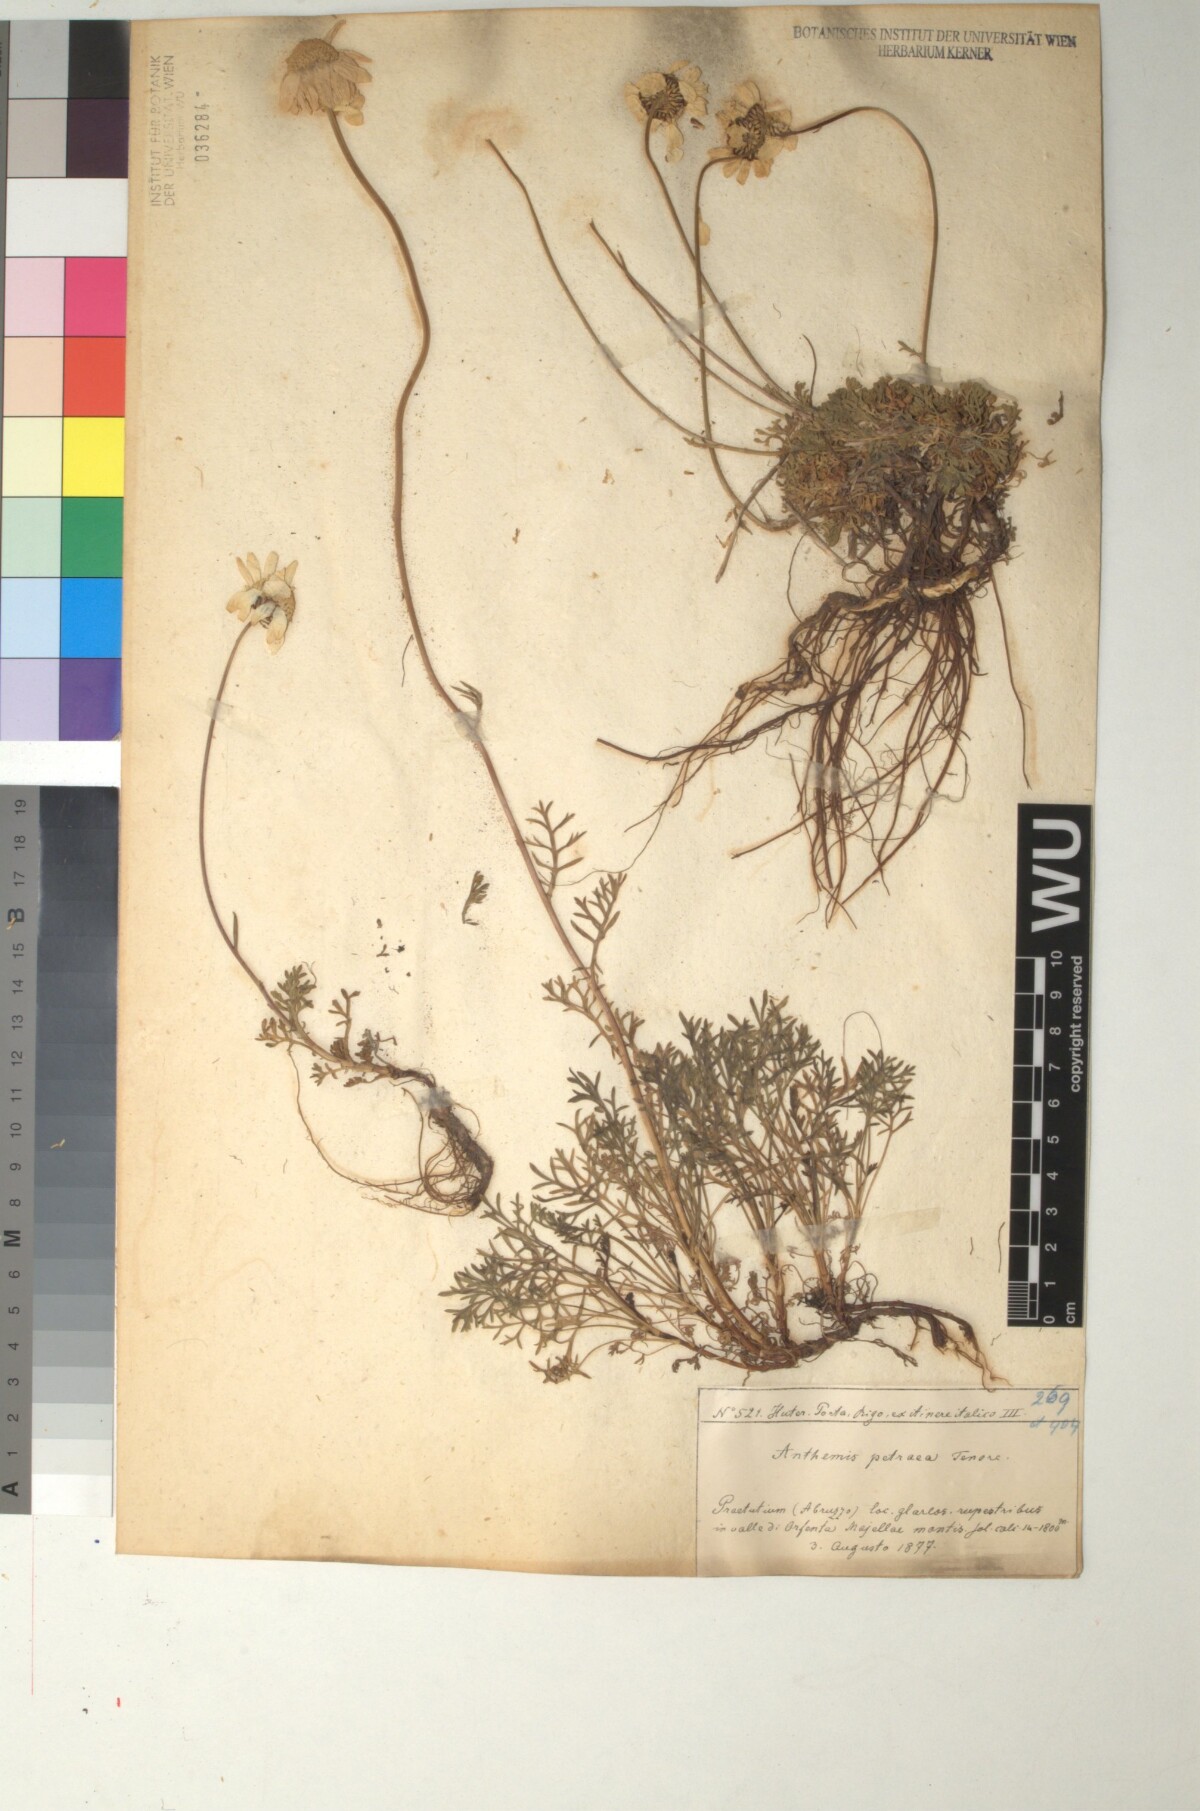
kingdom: Plantae
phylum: Tracheophyta
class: Magnoliopsida
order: Asterales
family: Asteraceae
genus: Anthemis
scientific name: Anthemis cretica
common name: Mountain dog-daisy
